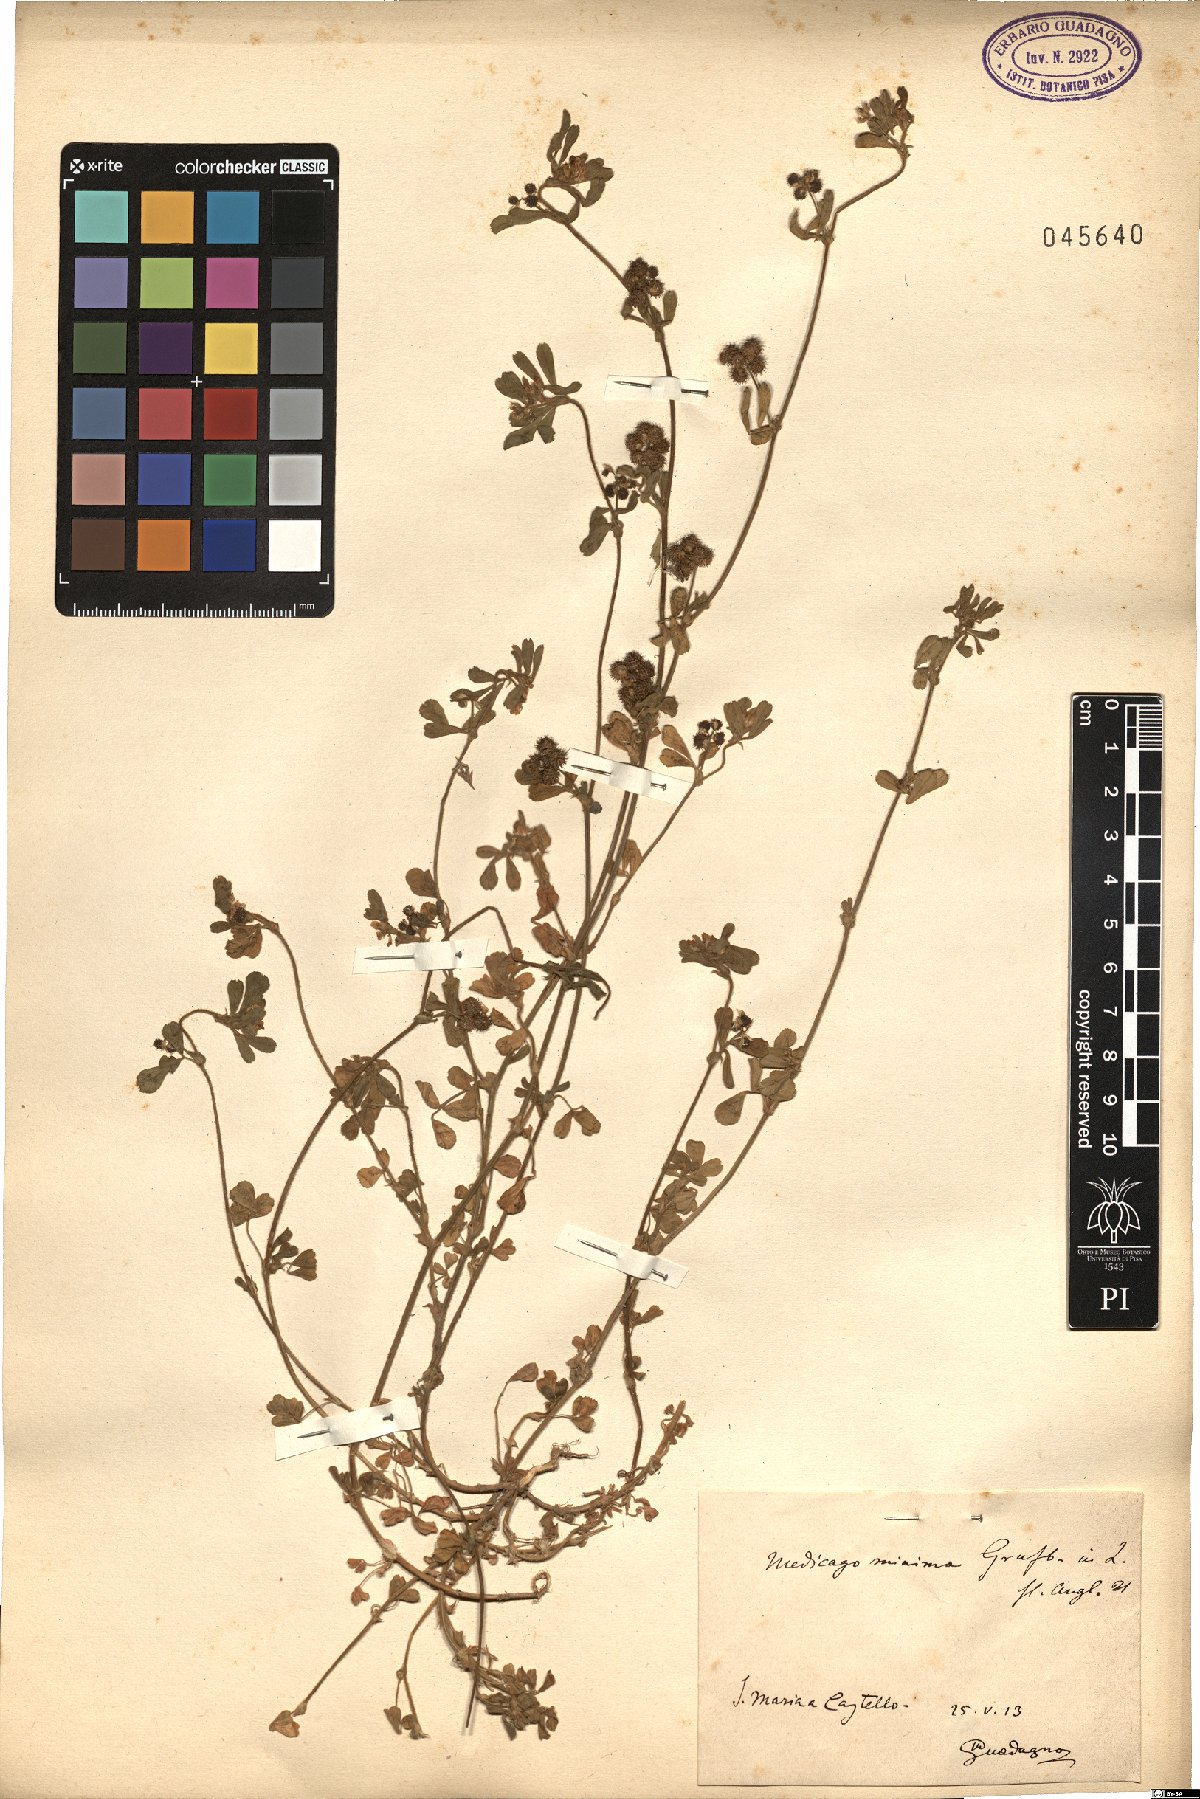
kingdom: Plantae
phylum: Tracheophyta
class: Magnoliopsida
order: Fabales
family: Fabaceae
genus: Medicago
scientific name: Medicago minima
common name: Little bur-clover
